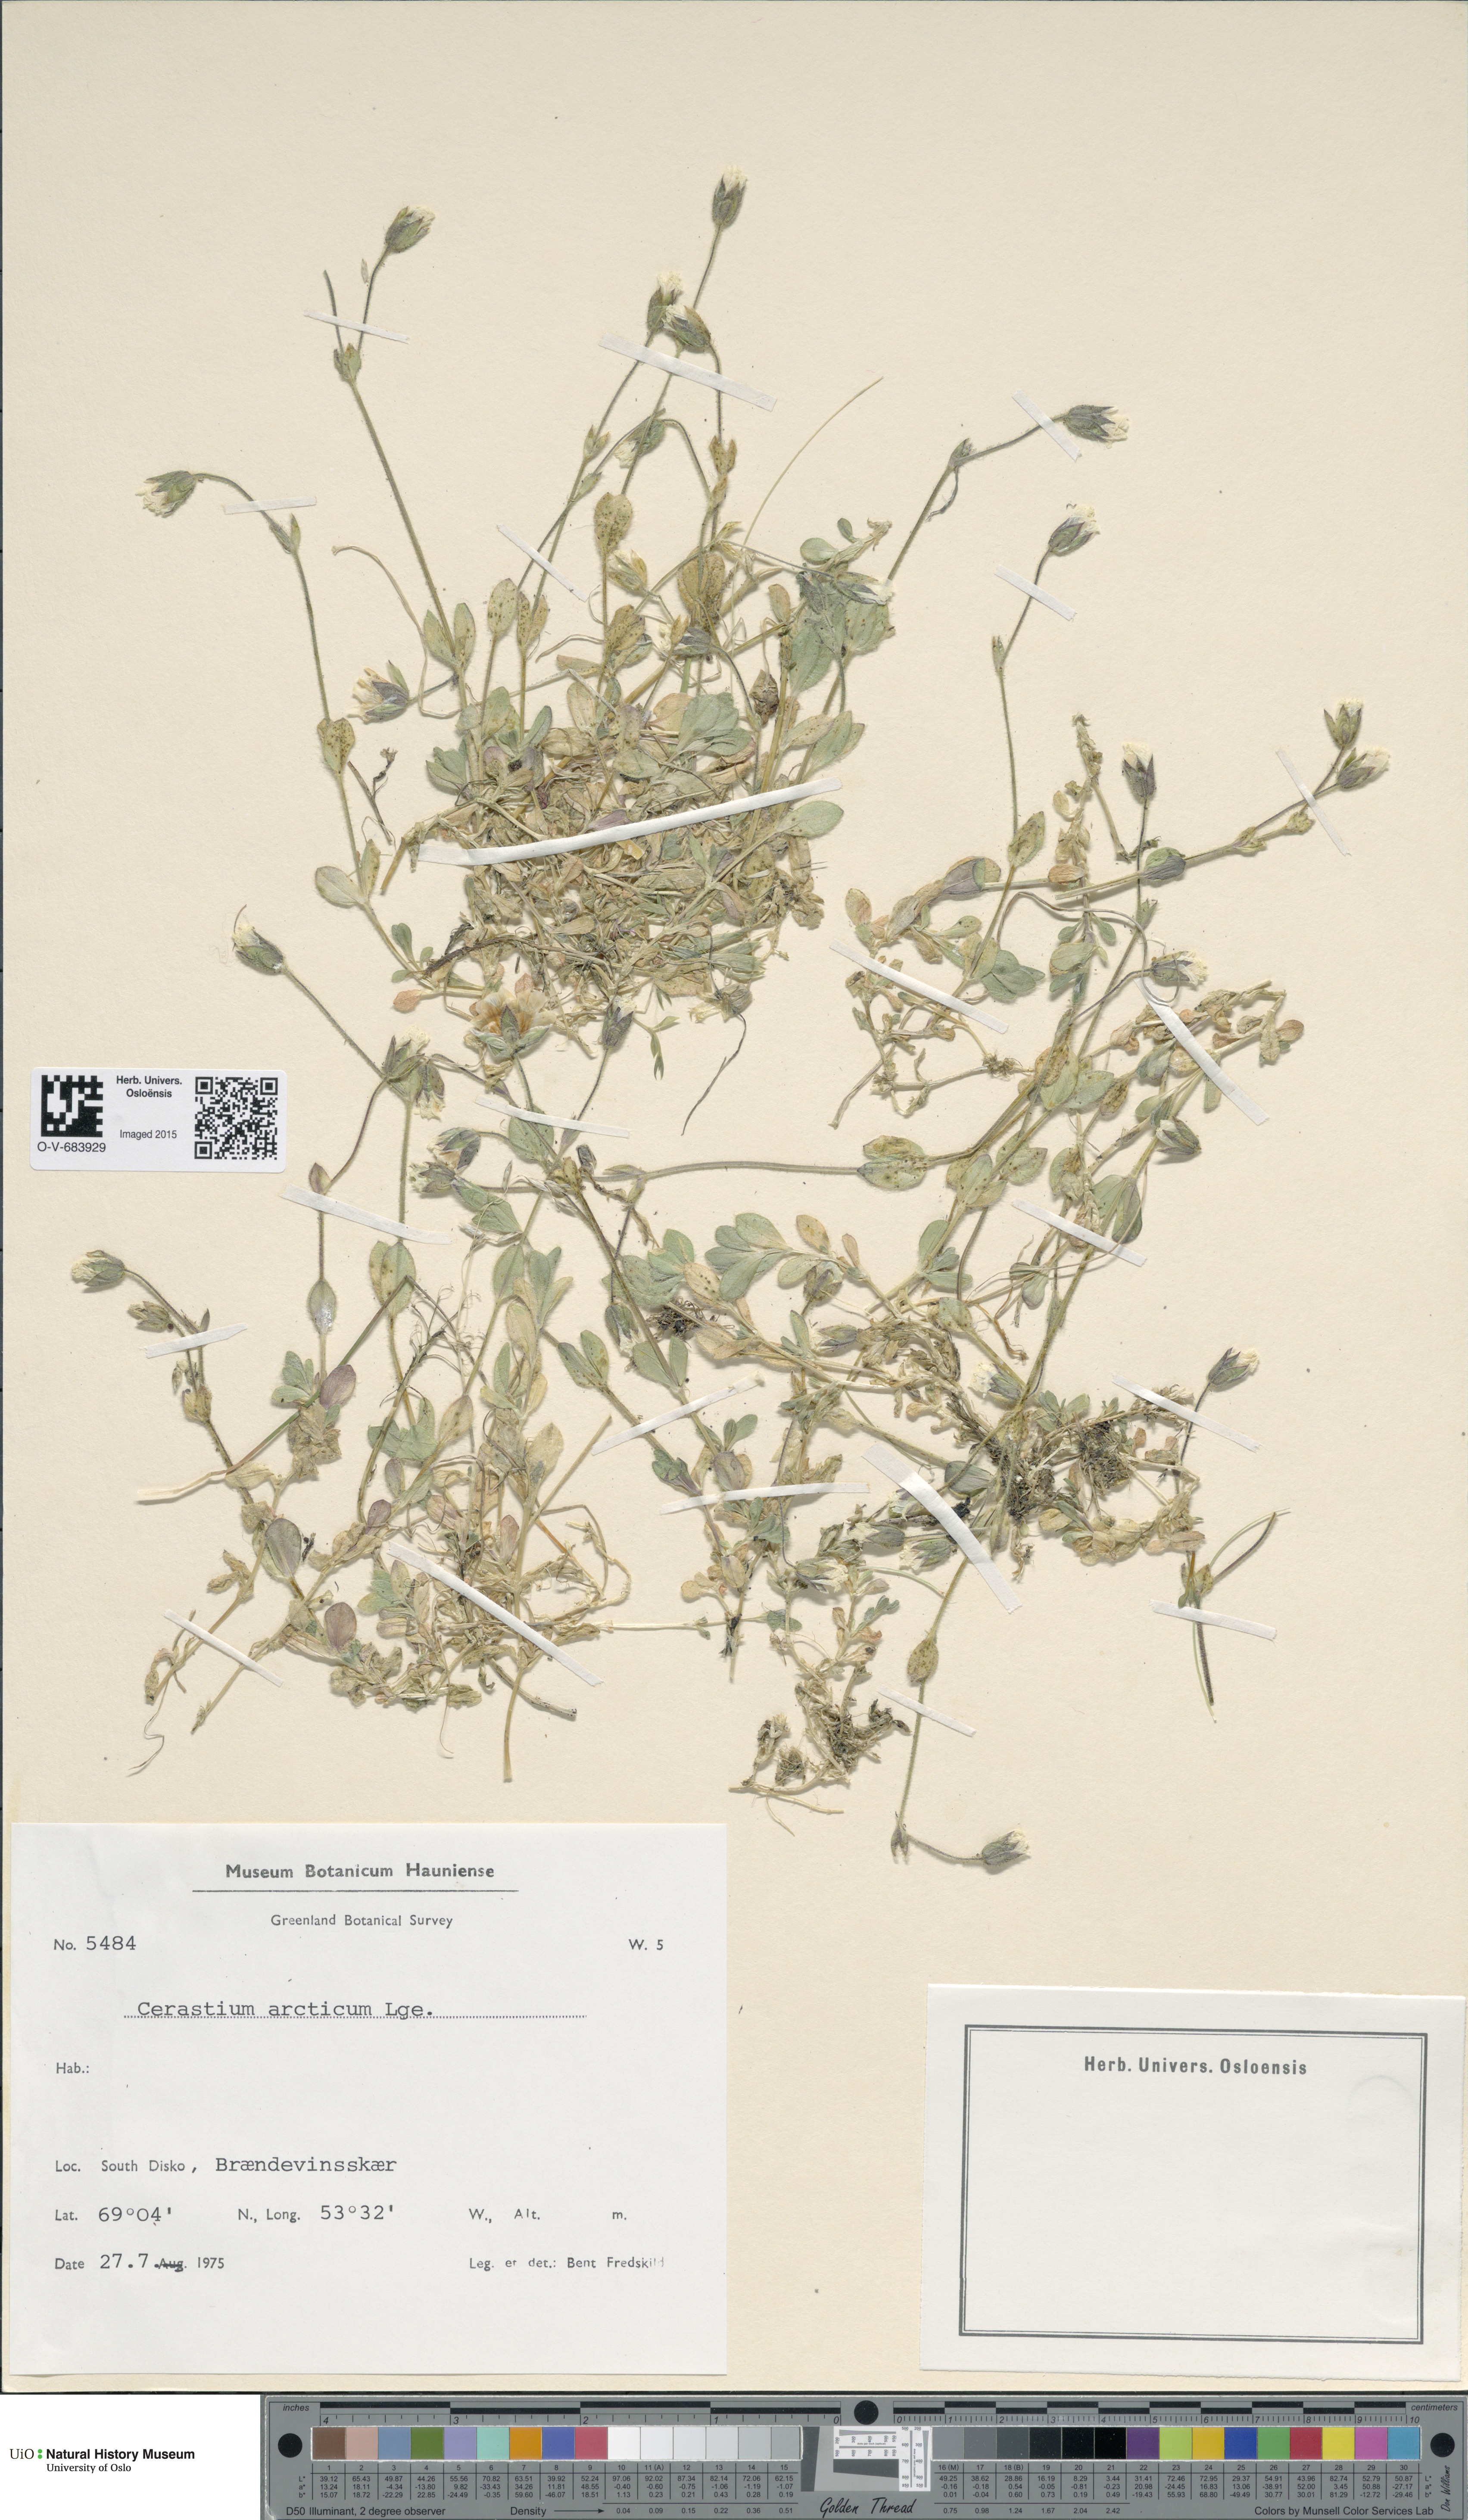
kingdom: Plantae
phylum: Tracheophyta
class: Magnoliopsida
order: Caryophyllales
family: Caryophyllaceae
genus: Cerastium
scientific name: Cerastium arcticum
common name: Arctic mouse-ear
